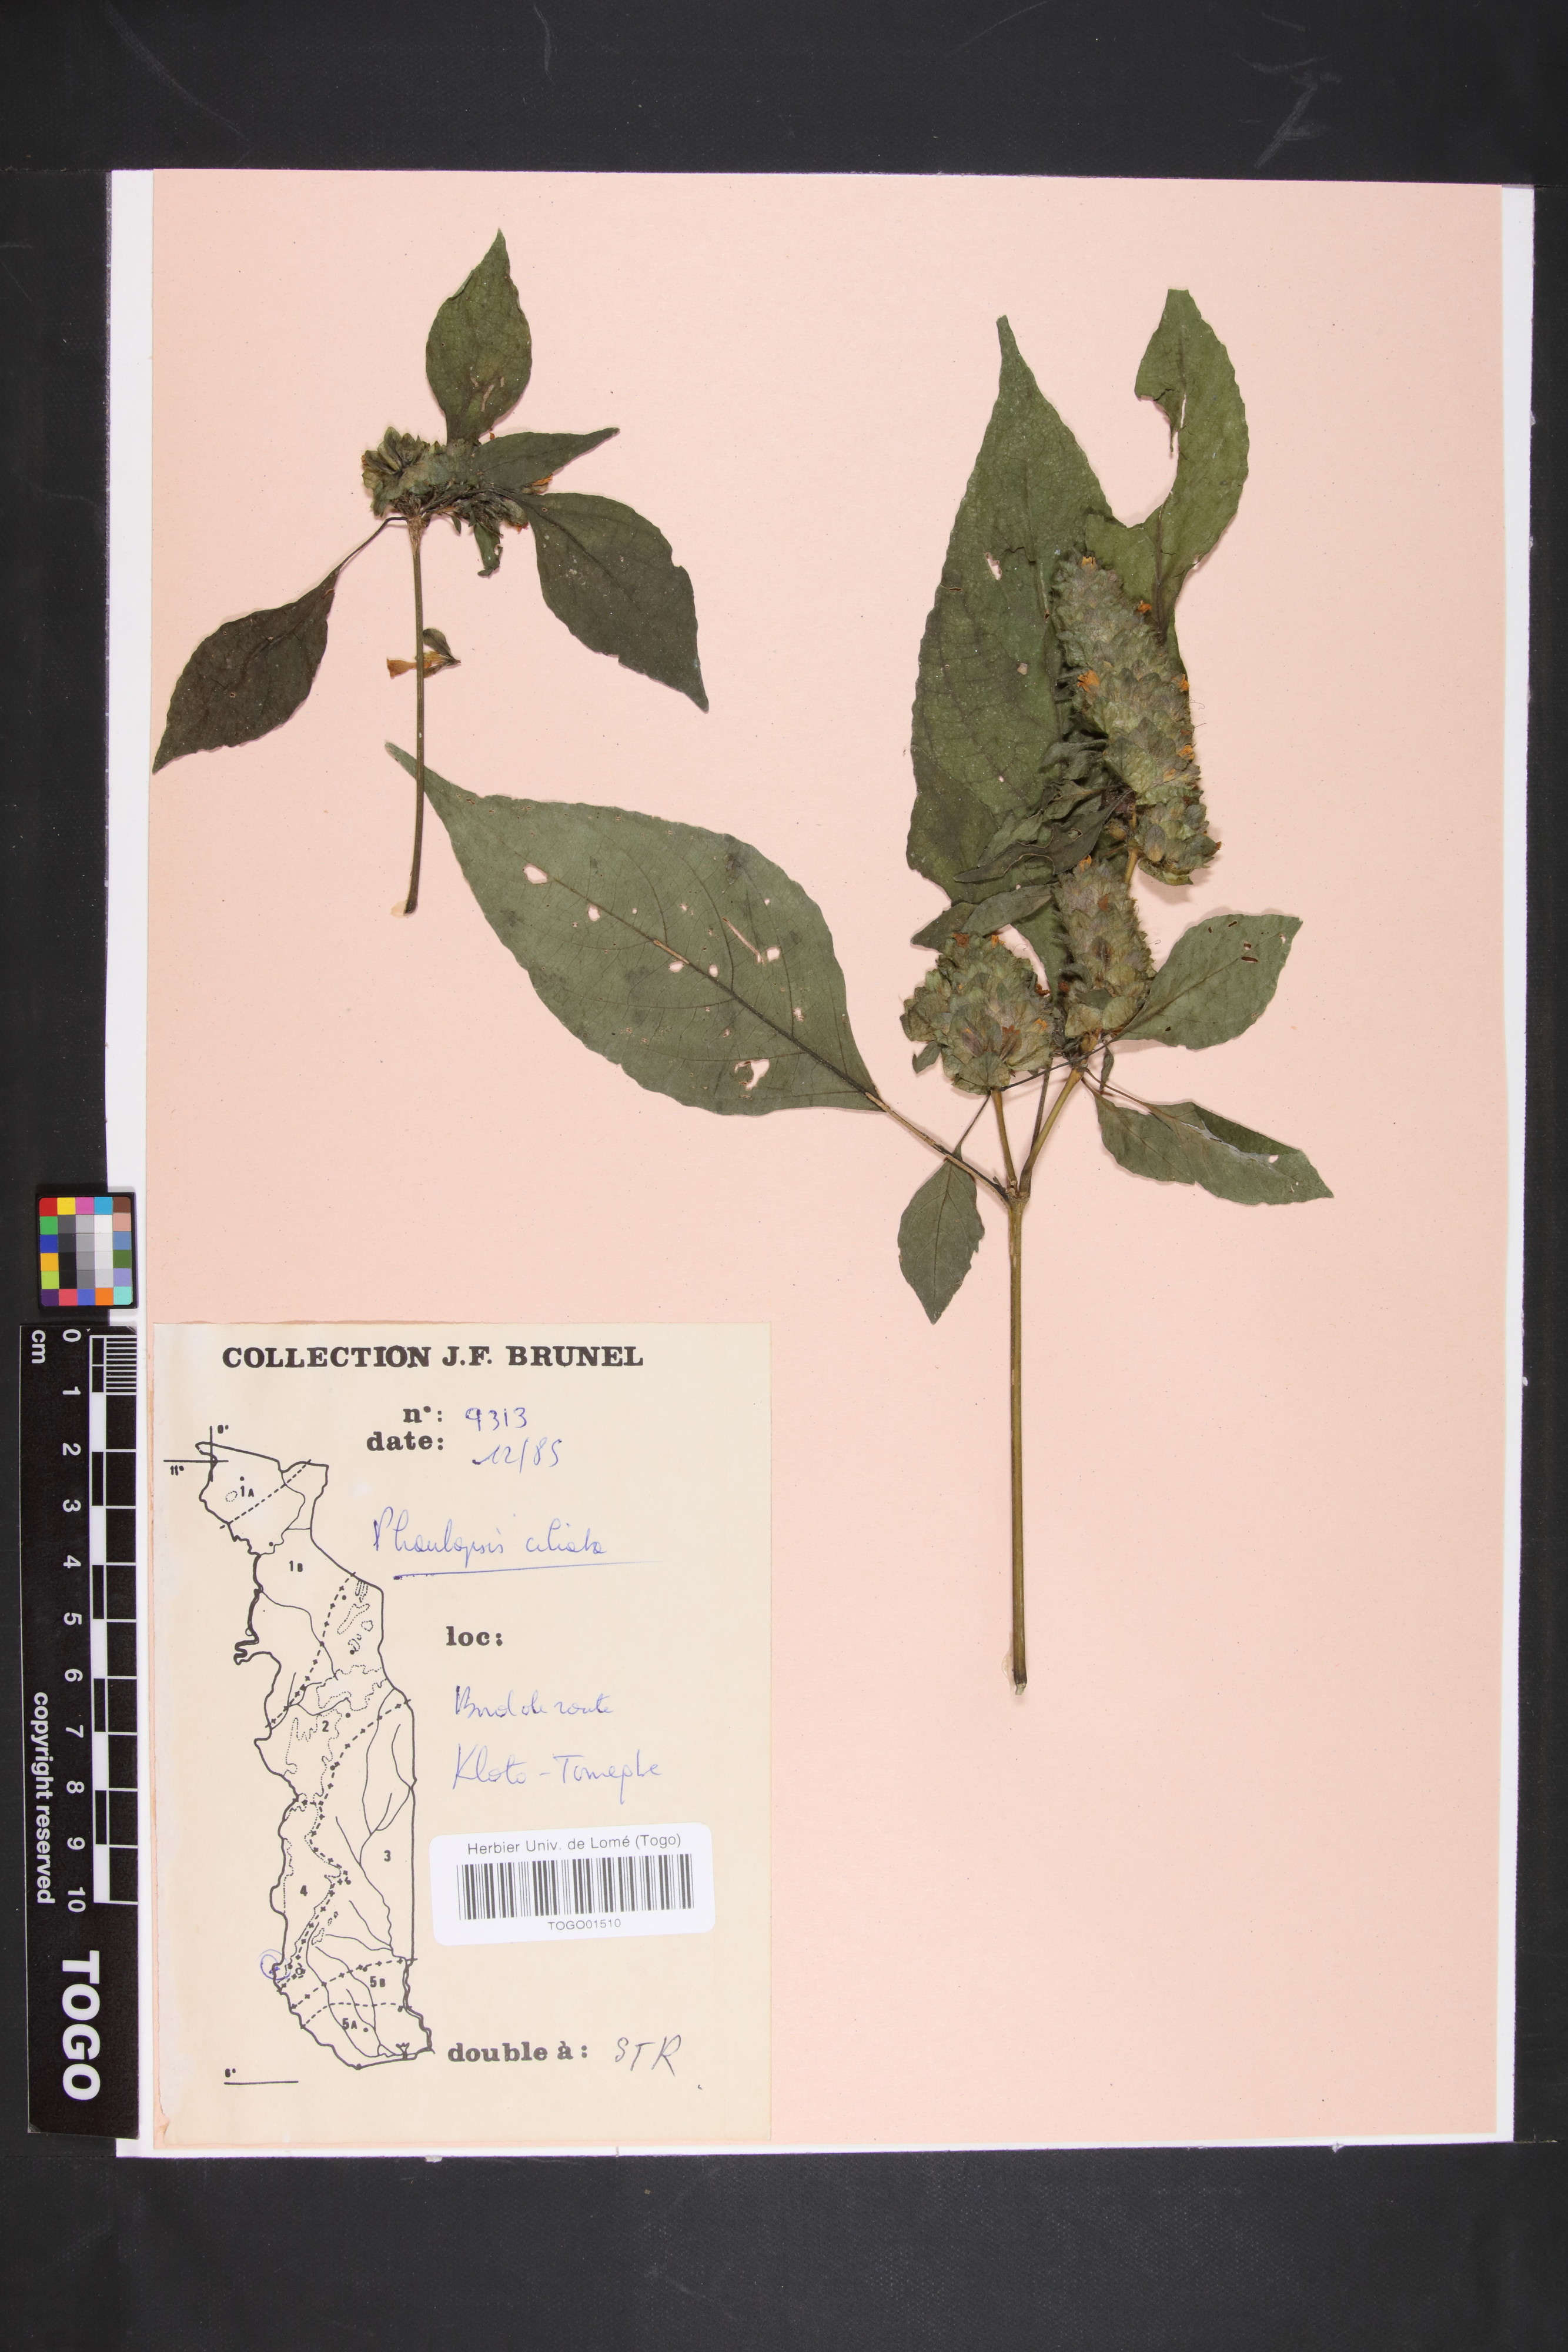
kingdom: Plantae
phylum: Tracheophyta
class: Magnoliopsida
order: Lamiales
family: Acanthaceae
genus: Phaulopsis
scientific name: Phaulopsis ciliata
